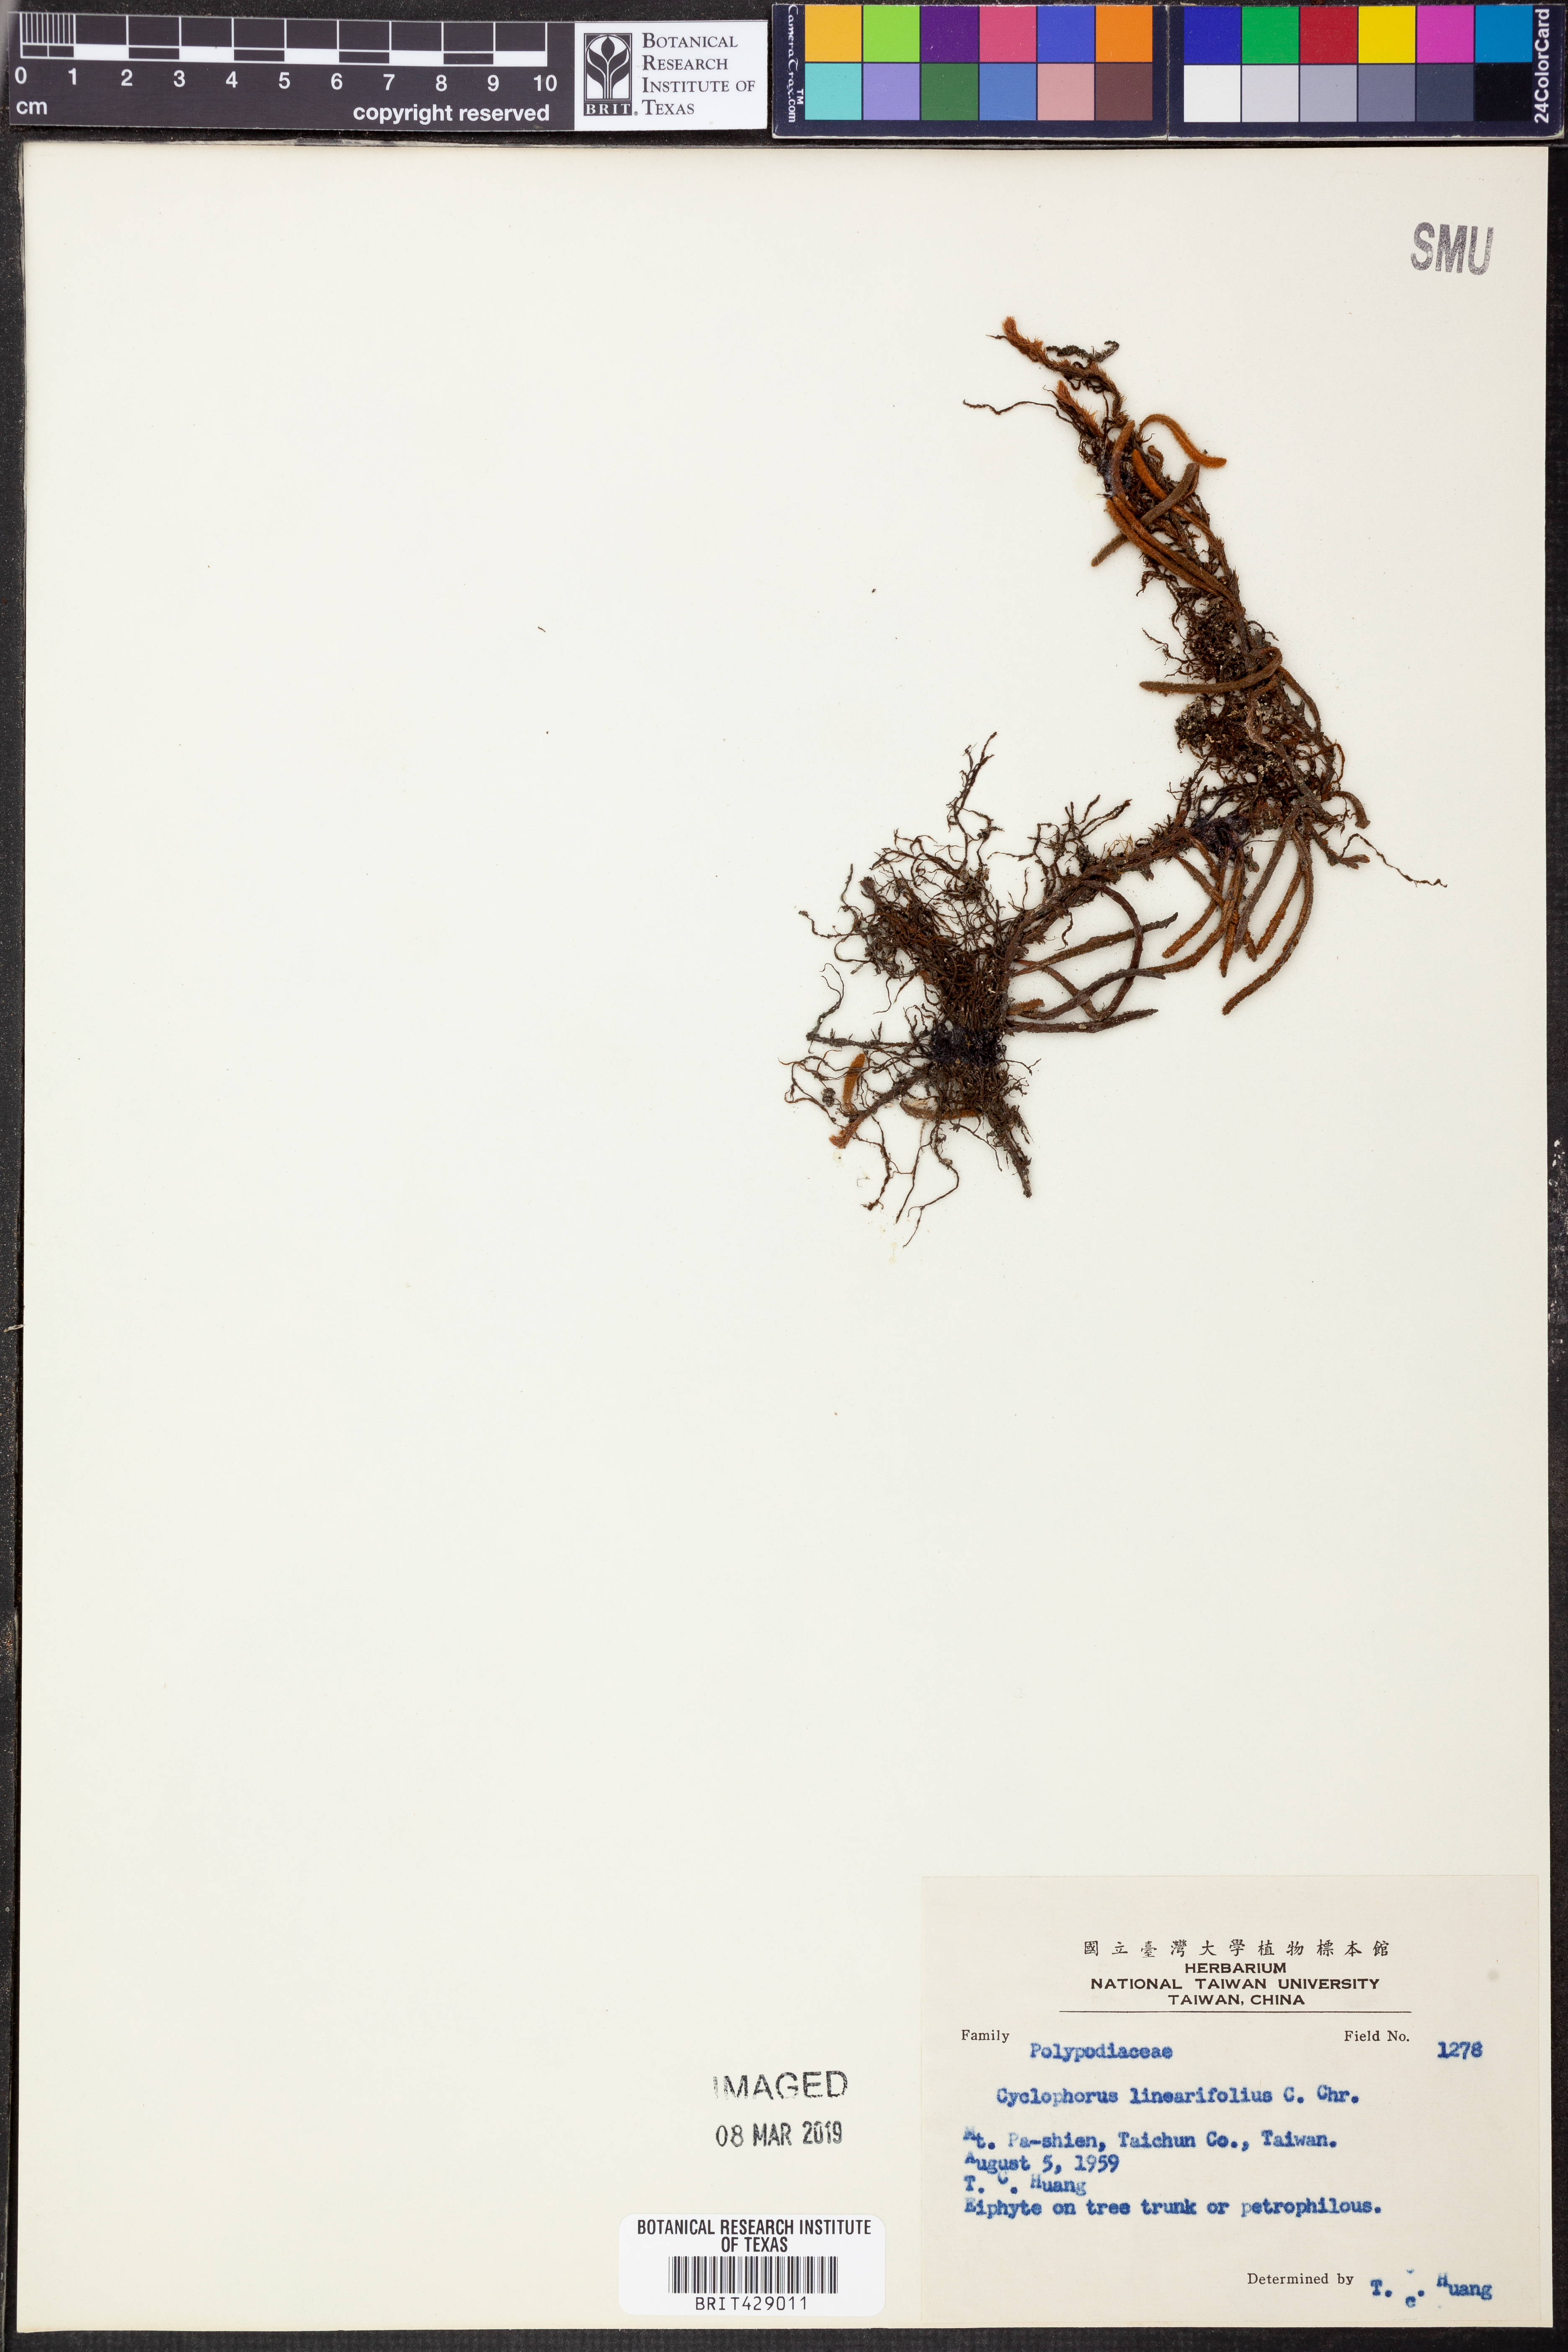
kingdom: Plantae
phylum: Tracheophyta
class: Polypodiopsida
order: Polypodiales
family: Polypodiaceae
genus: Pyrrosia
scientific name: Pyrrosia linearifolia
